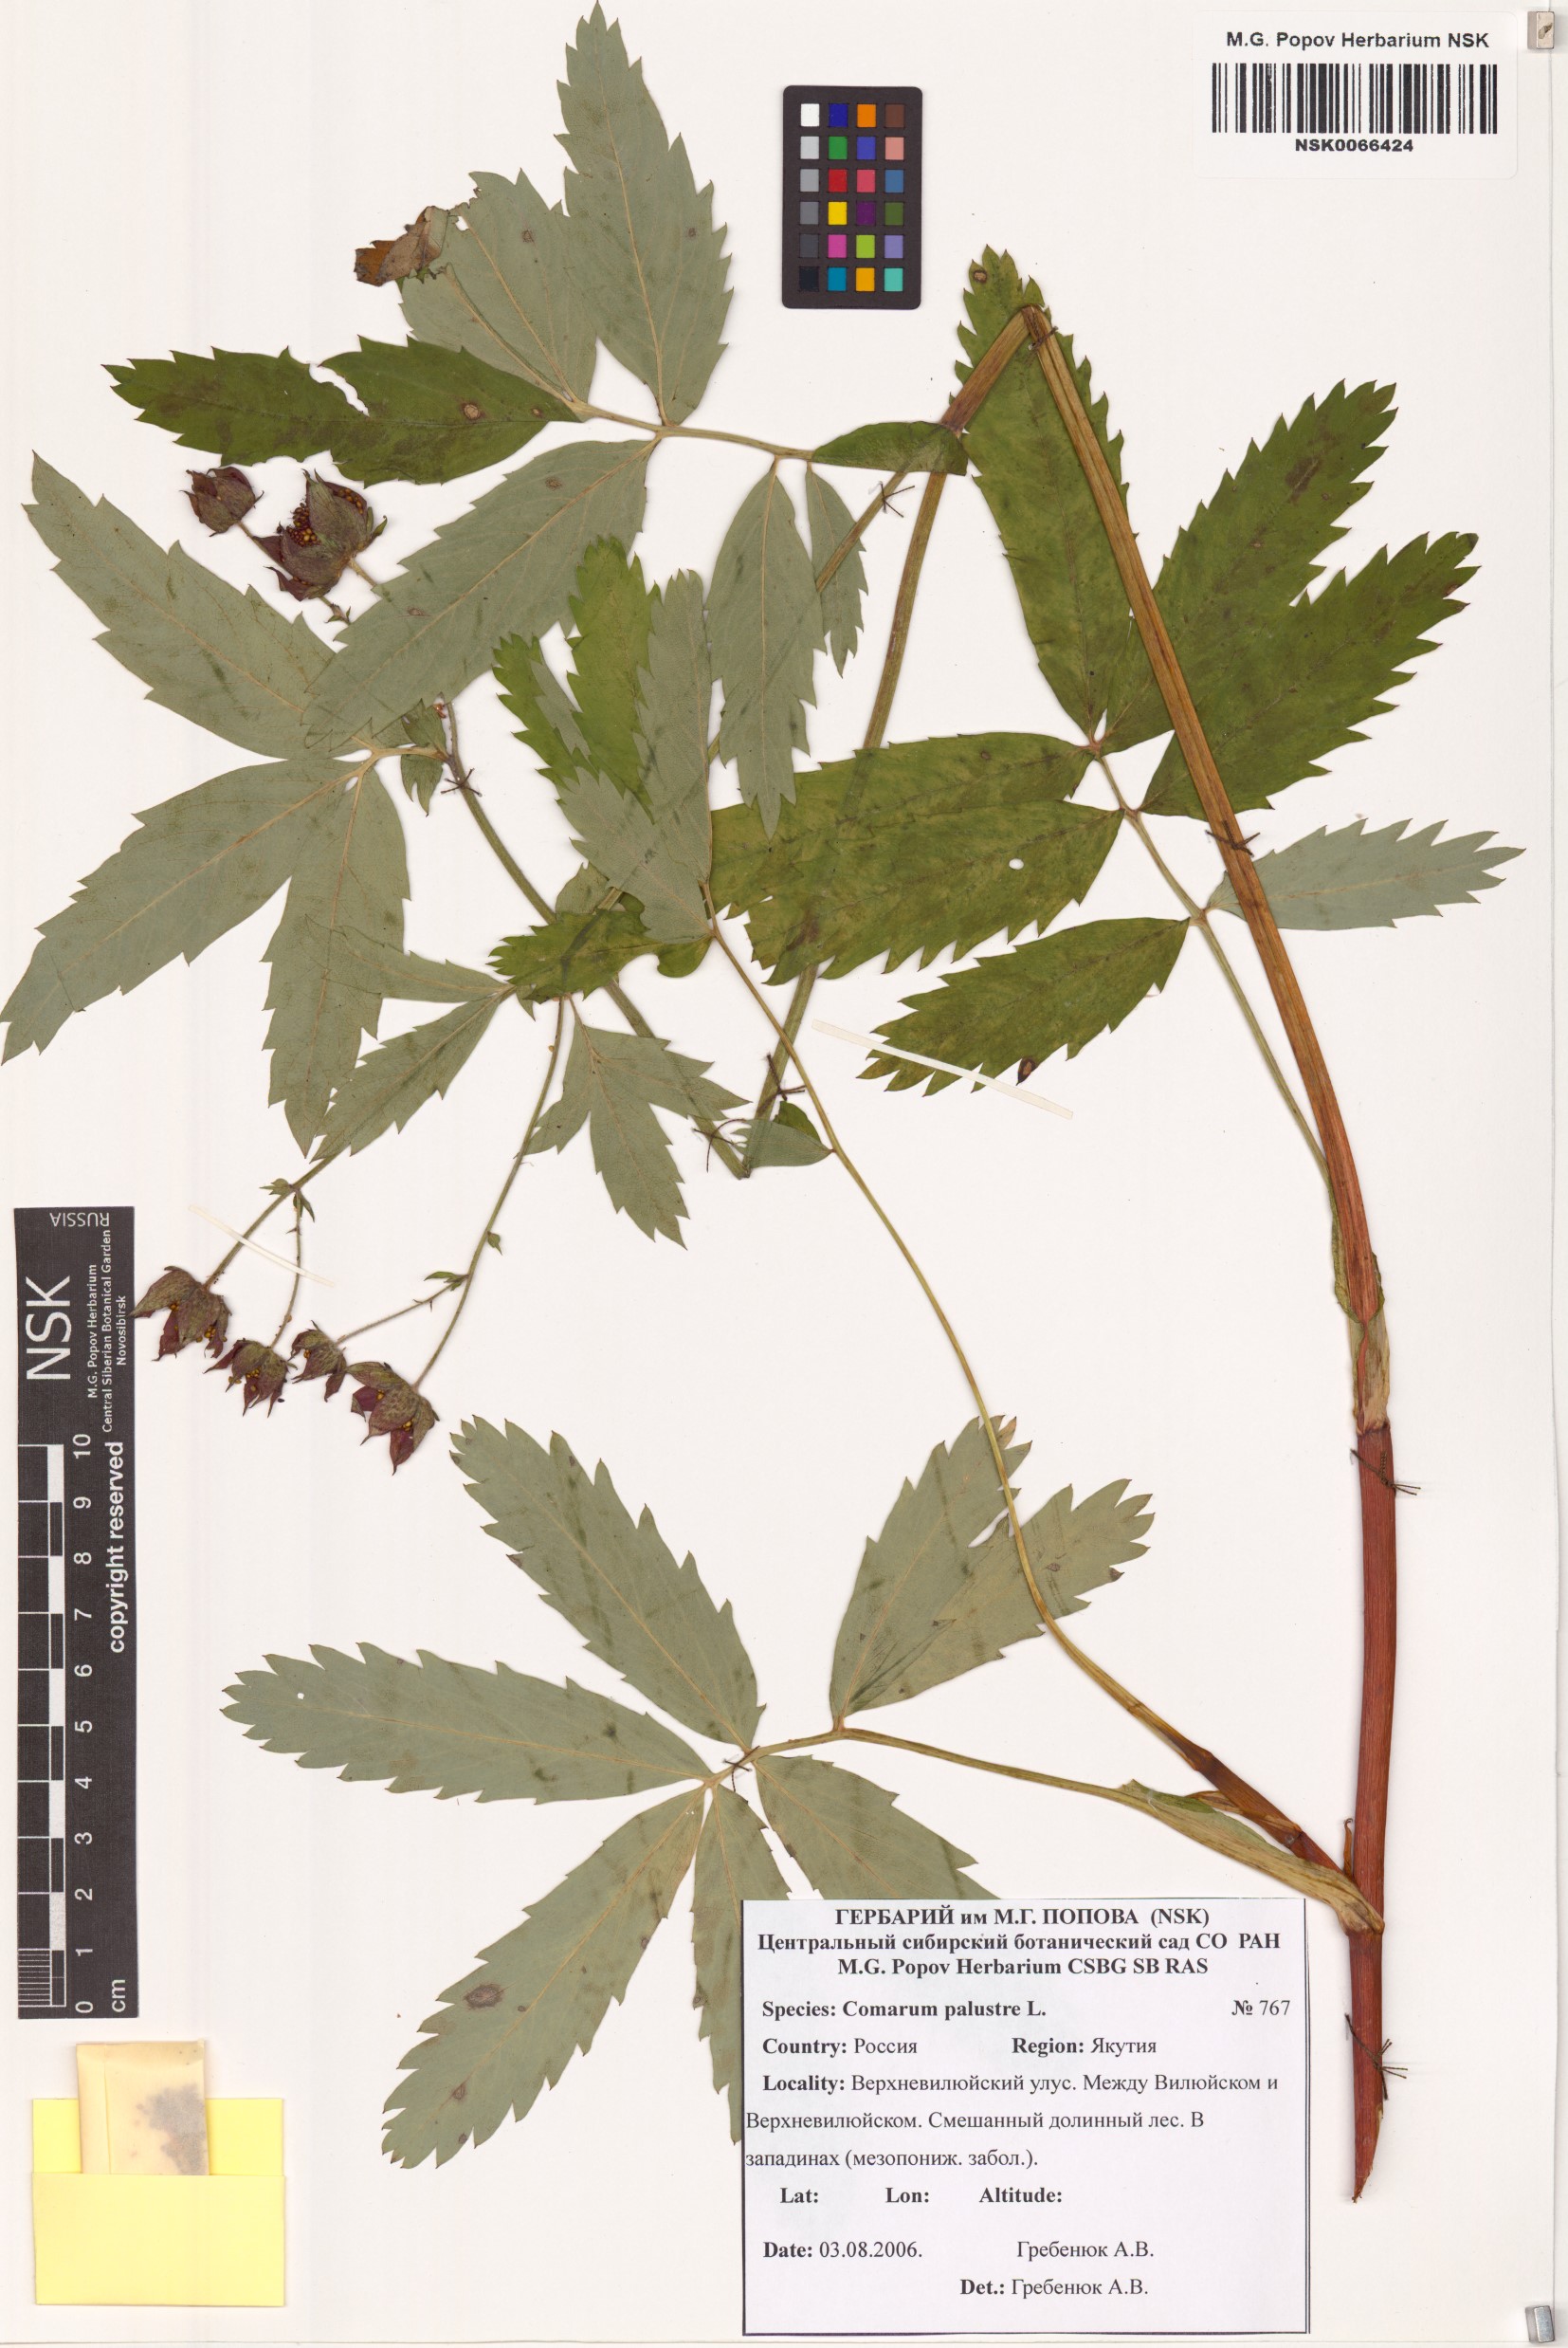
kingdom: Plantae
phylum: Tracheophyta
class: Magnoliopsida
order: Rosales
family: Rosaceae
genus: Comarum
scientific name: Comarum palustre
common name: Marsh cinquefoil
